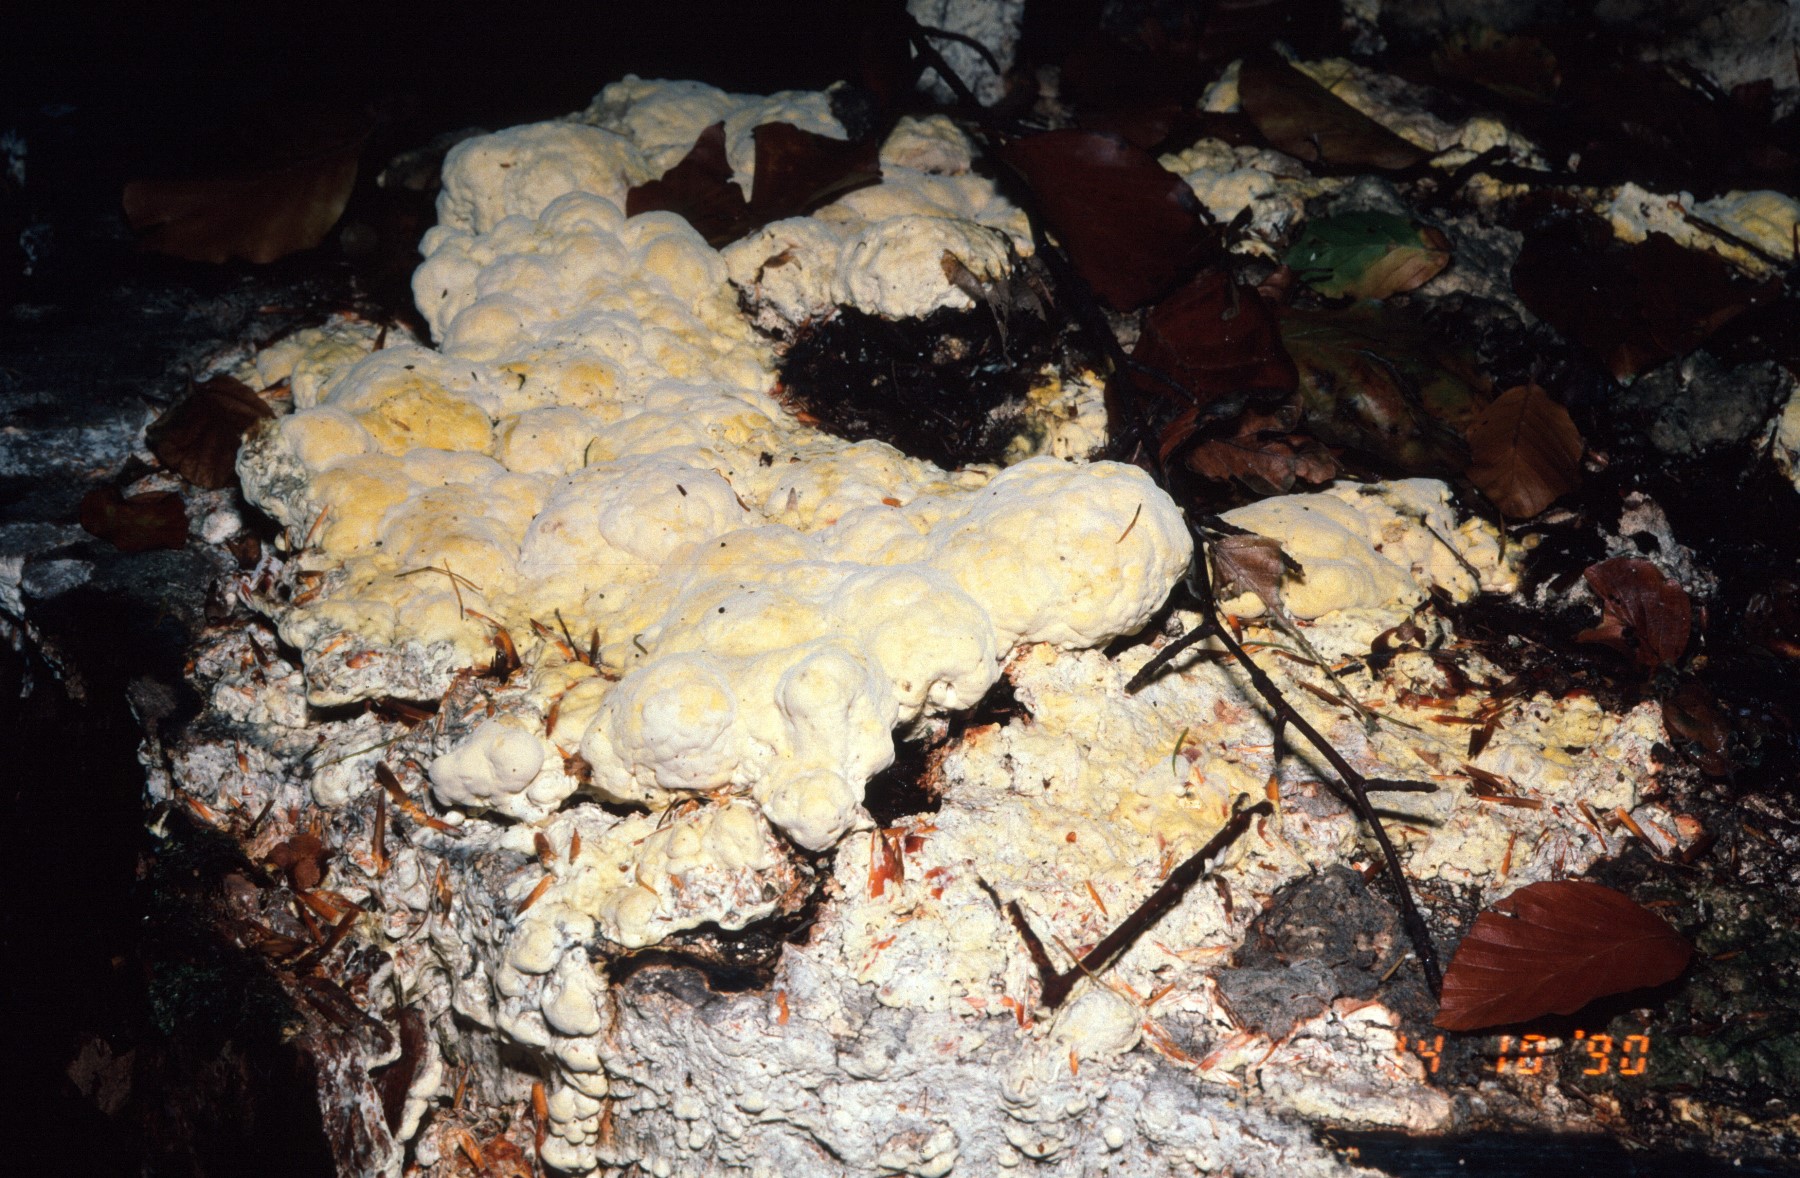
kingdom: Fungi
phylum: Ascomycota
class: Sordariomycetes
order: Hypocreales
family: Hypocreaceae
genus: Trichoderma
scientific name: Trichoderma citrinum
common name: udbredt kødkerne
